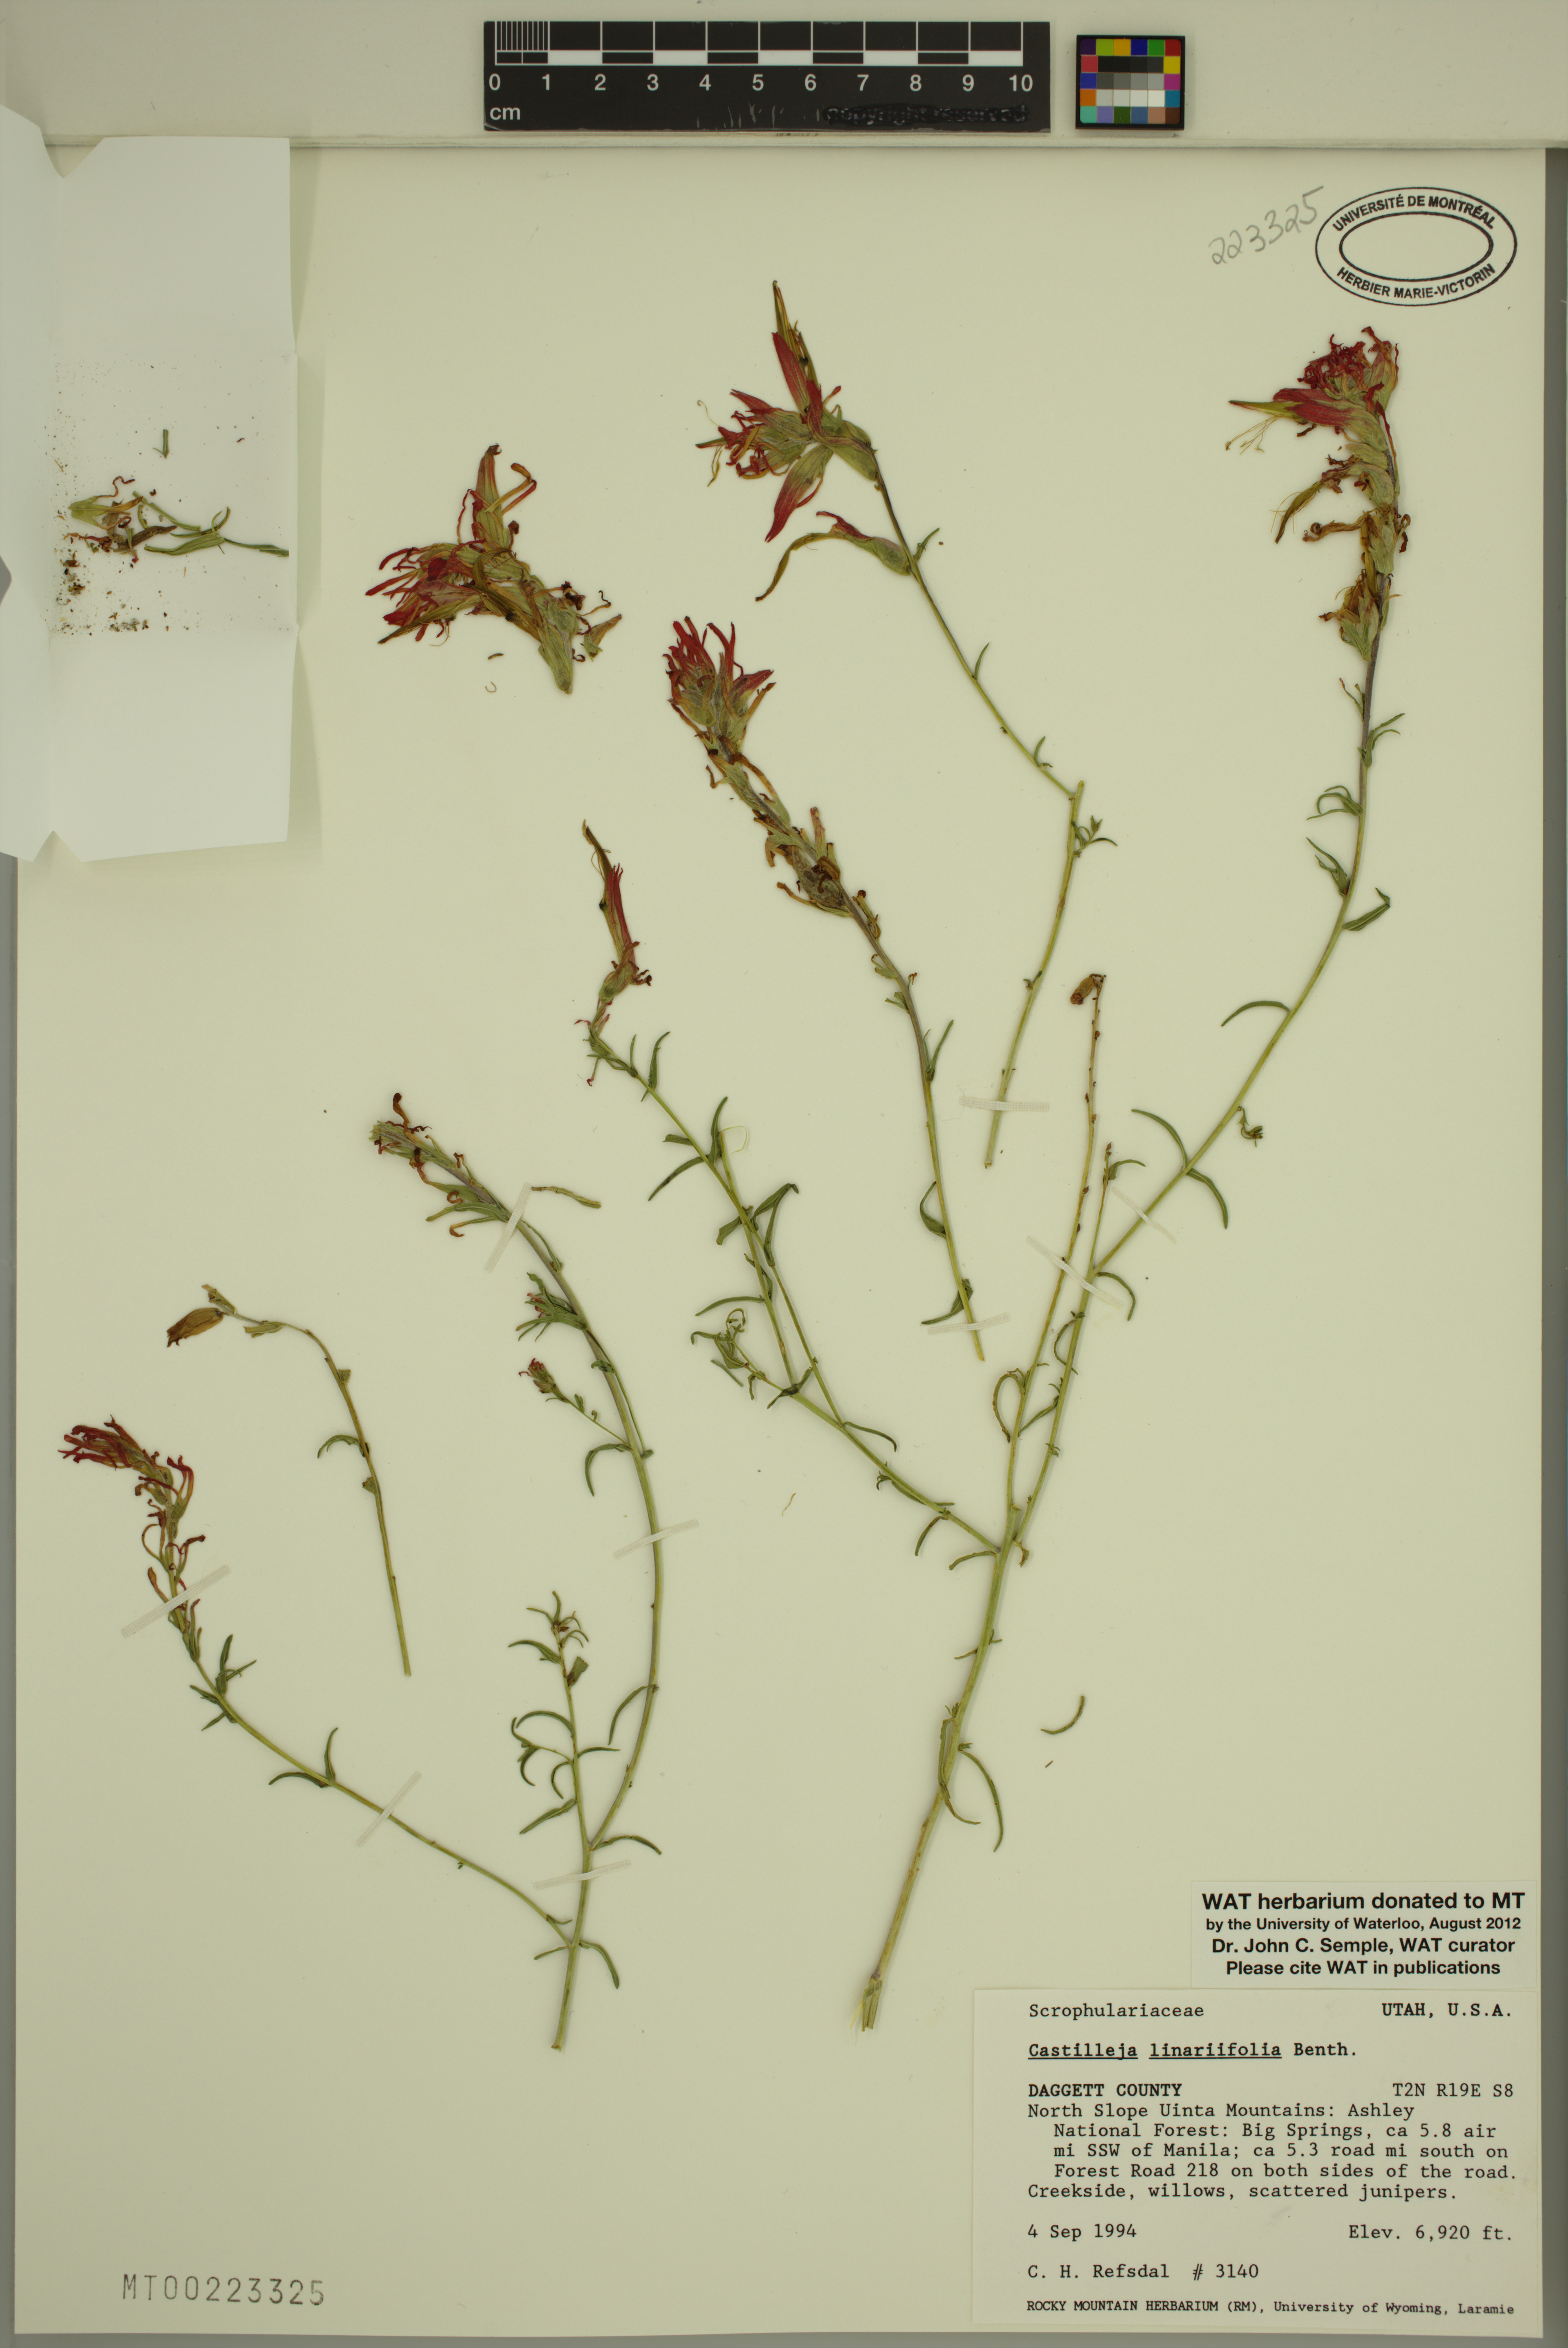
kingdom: Plantae
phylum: Tracheophyta
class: Magnoliopsida
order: Lamiales
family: Orobanchaceae
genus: Castilleja
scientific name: Castilleja linariifolia
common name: Wyoming paintbrush
